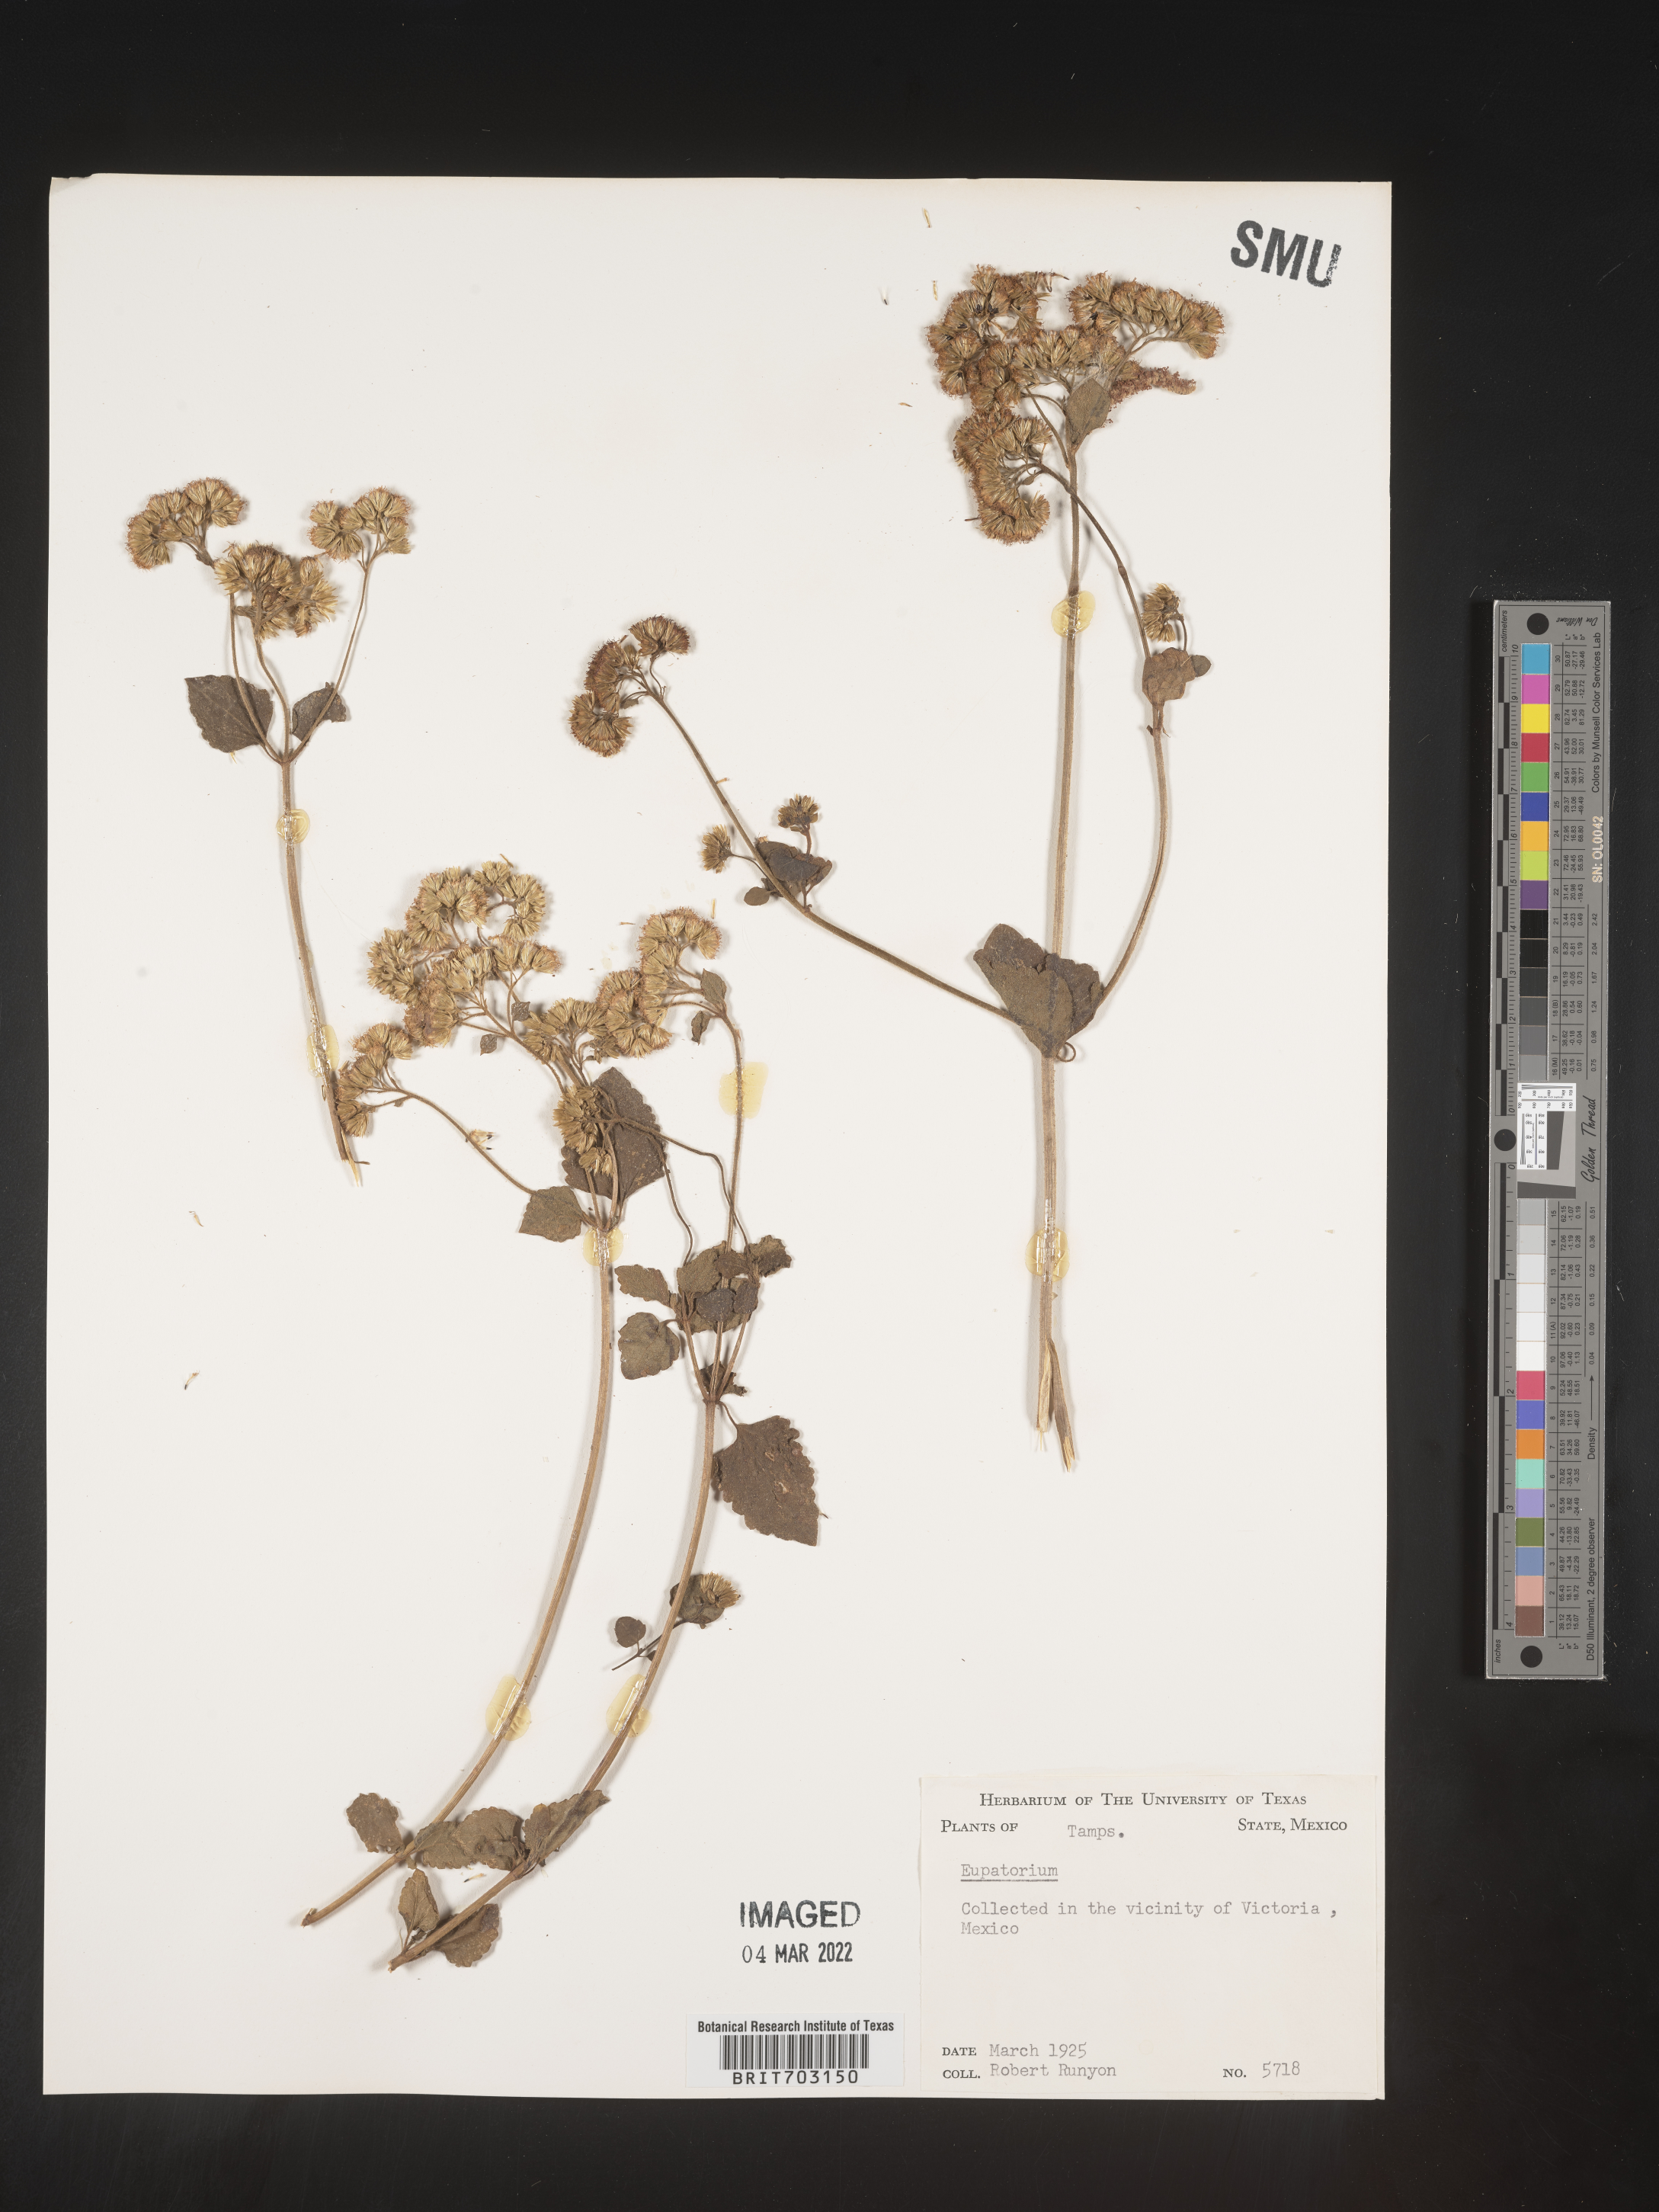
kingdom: Plantae
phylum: Tracheophyta
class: Magnoliopsida
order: Asterales
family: Asteraceae
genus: Eupatorium
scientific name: Eupatorium
